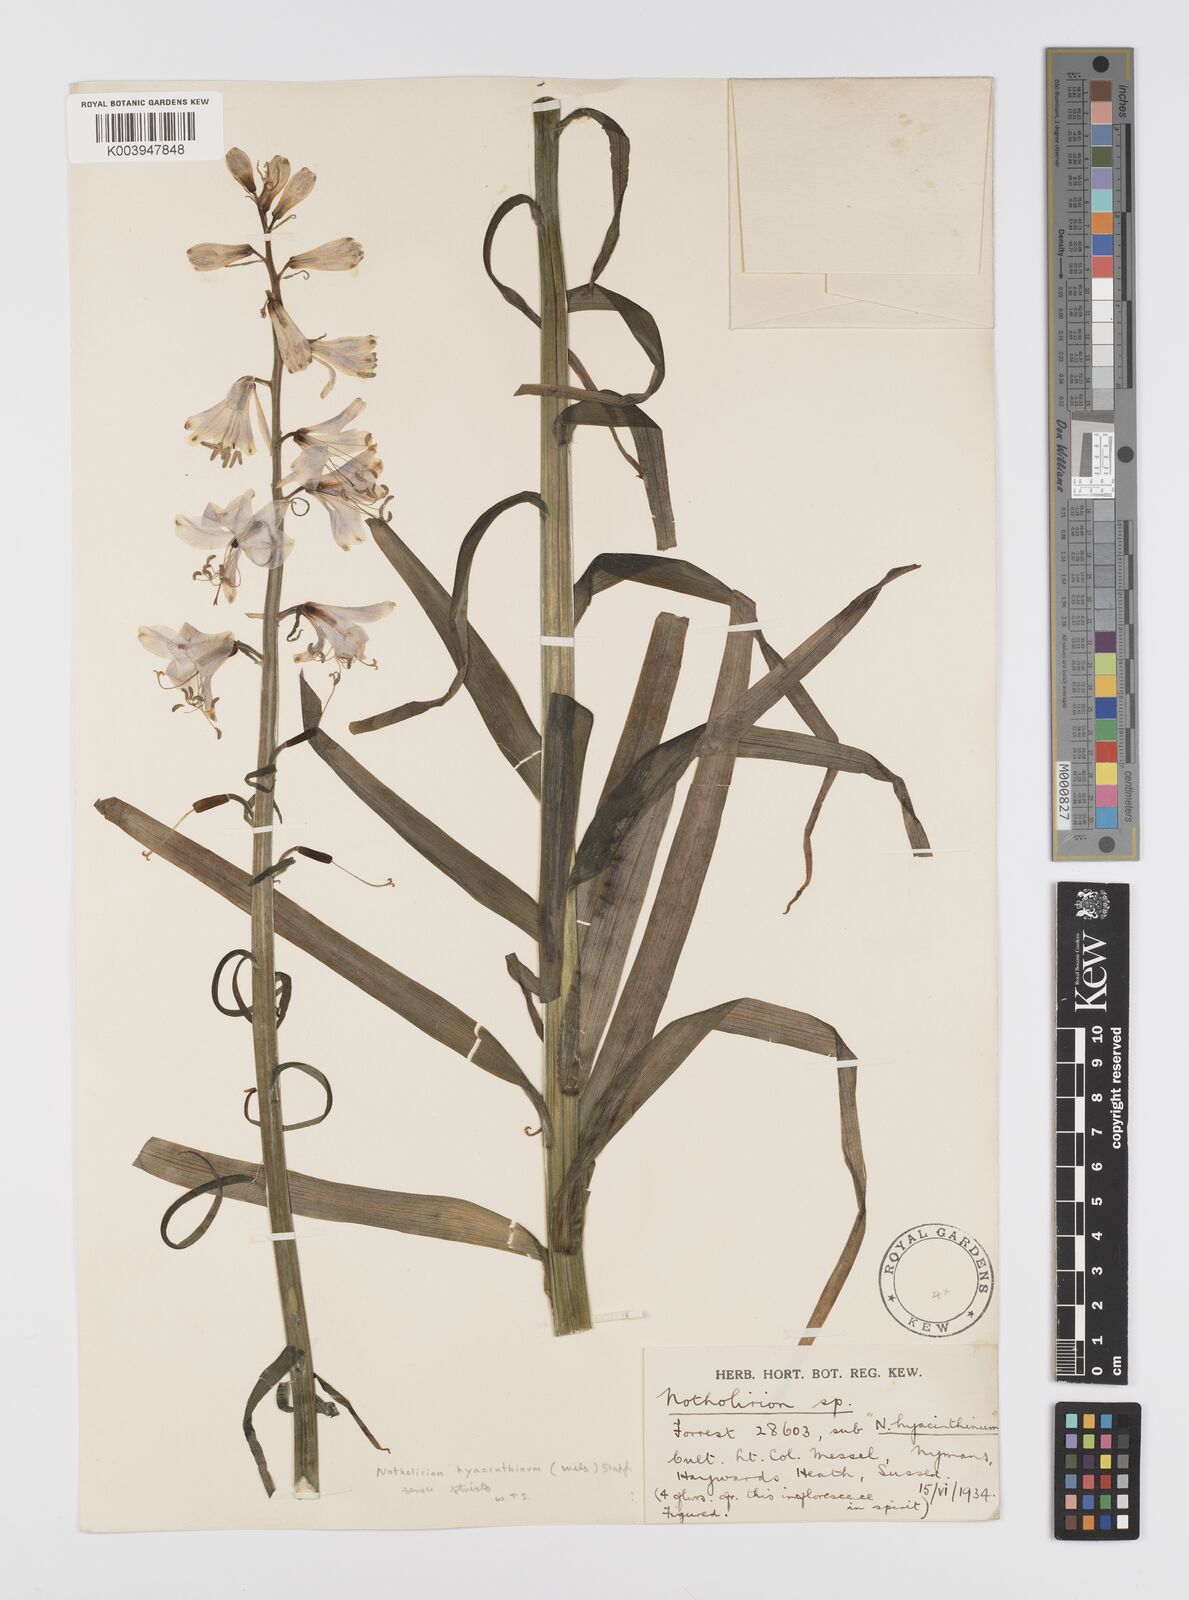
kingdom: Plantae
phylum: Tracheophyta
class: Liliopsida
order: Liliales
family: Liliaceae
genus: Notholirion
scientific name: Notholirion bulbuliferum
